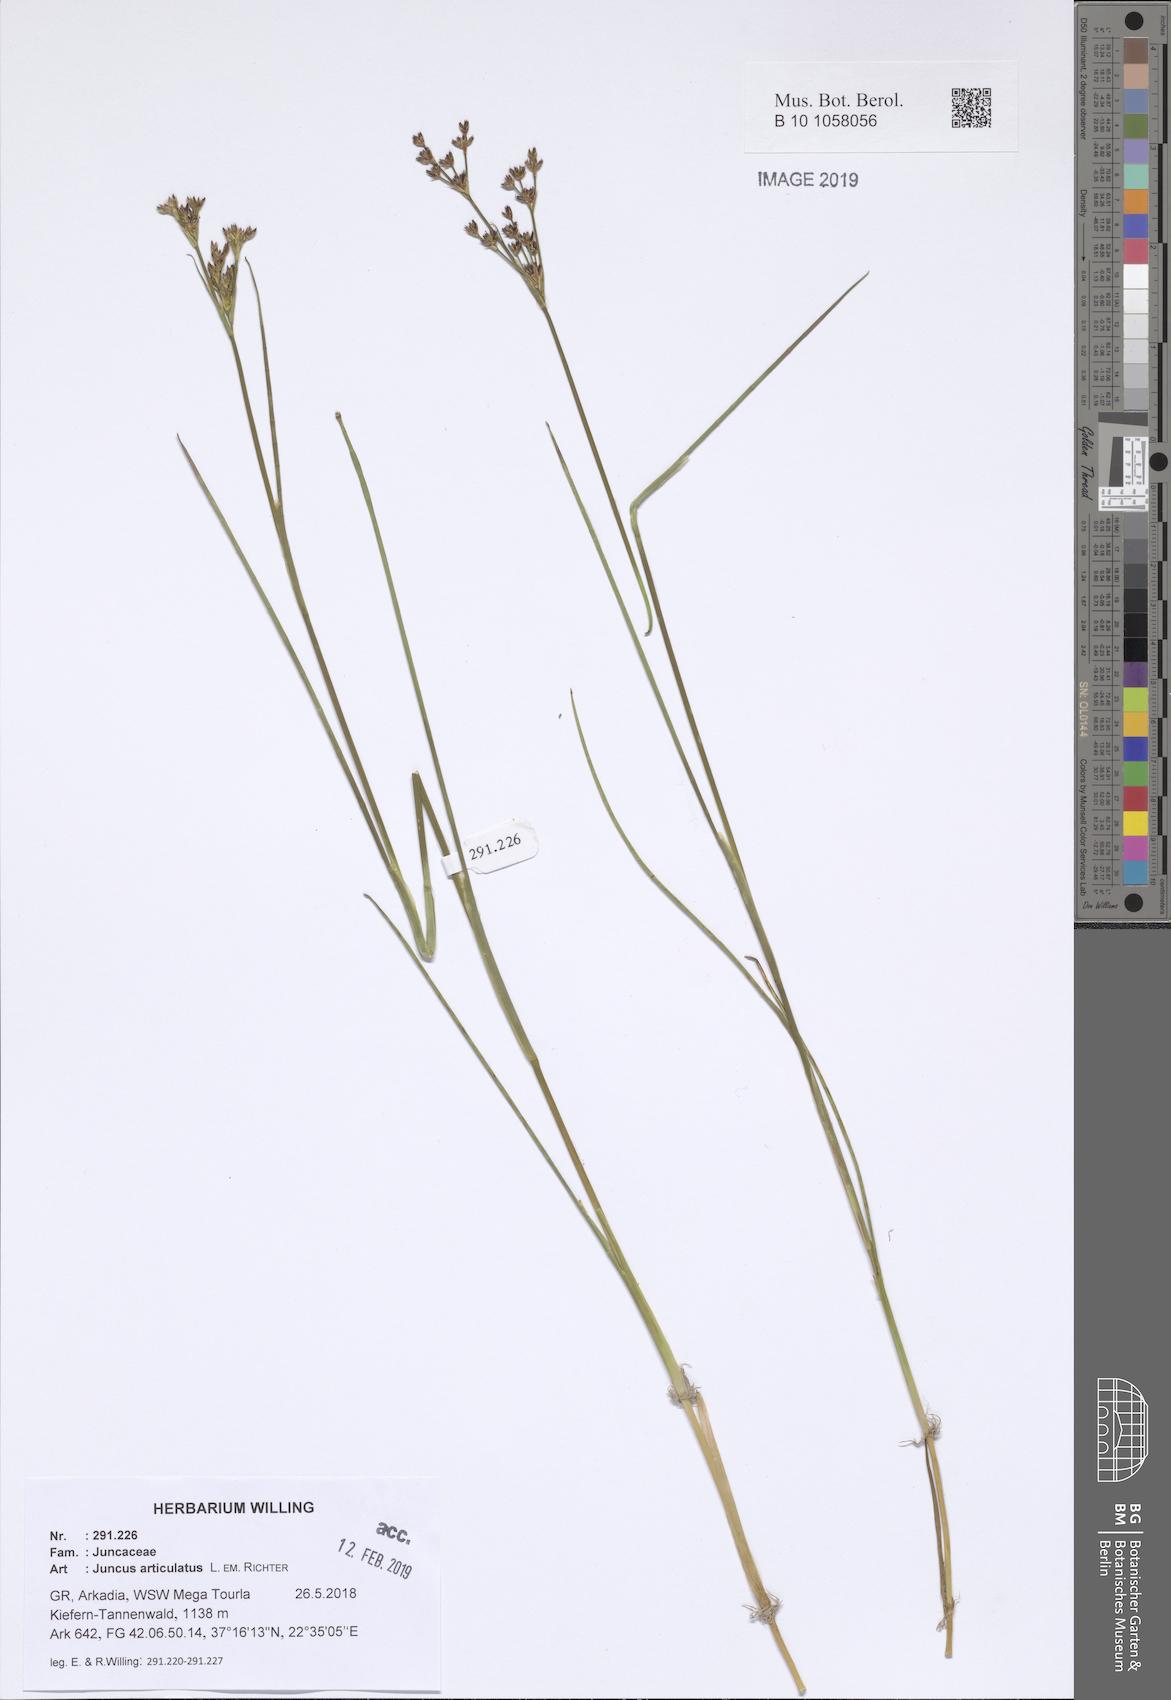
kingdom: Plantae
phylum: Tracheophyta
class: Liliopsida
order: Poales
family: Juncaceae
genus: Juncus
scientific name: Juncus articulatus
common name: Jointed rush
